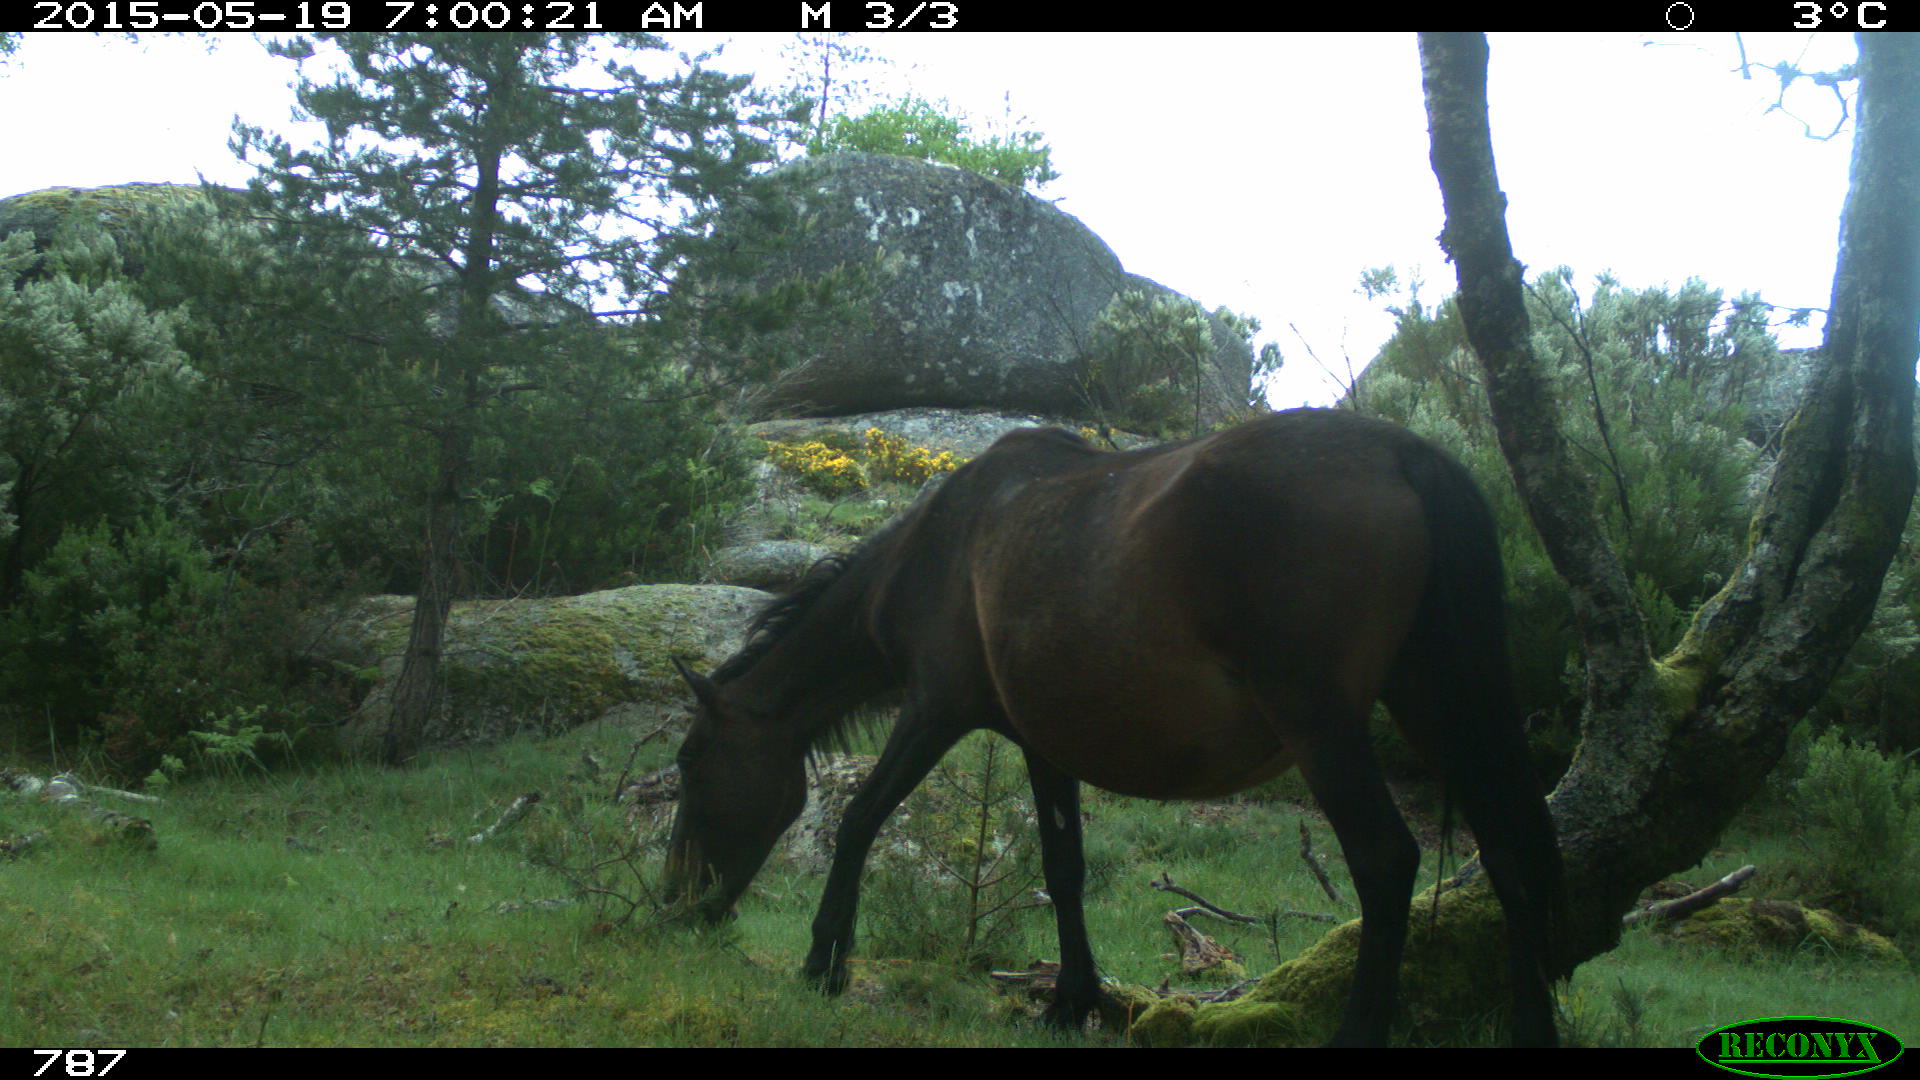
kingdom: Animalia
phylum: Chordata
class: Mammalia
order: Perissodactyla
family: Equidae
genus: Equus
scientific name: Equus caballus
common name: Horse
